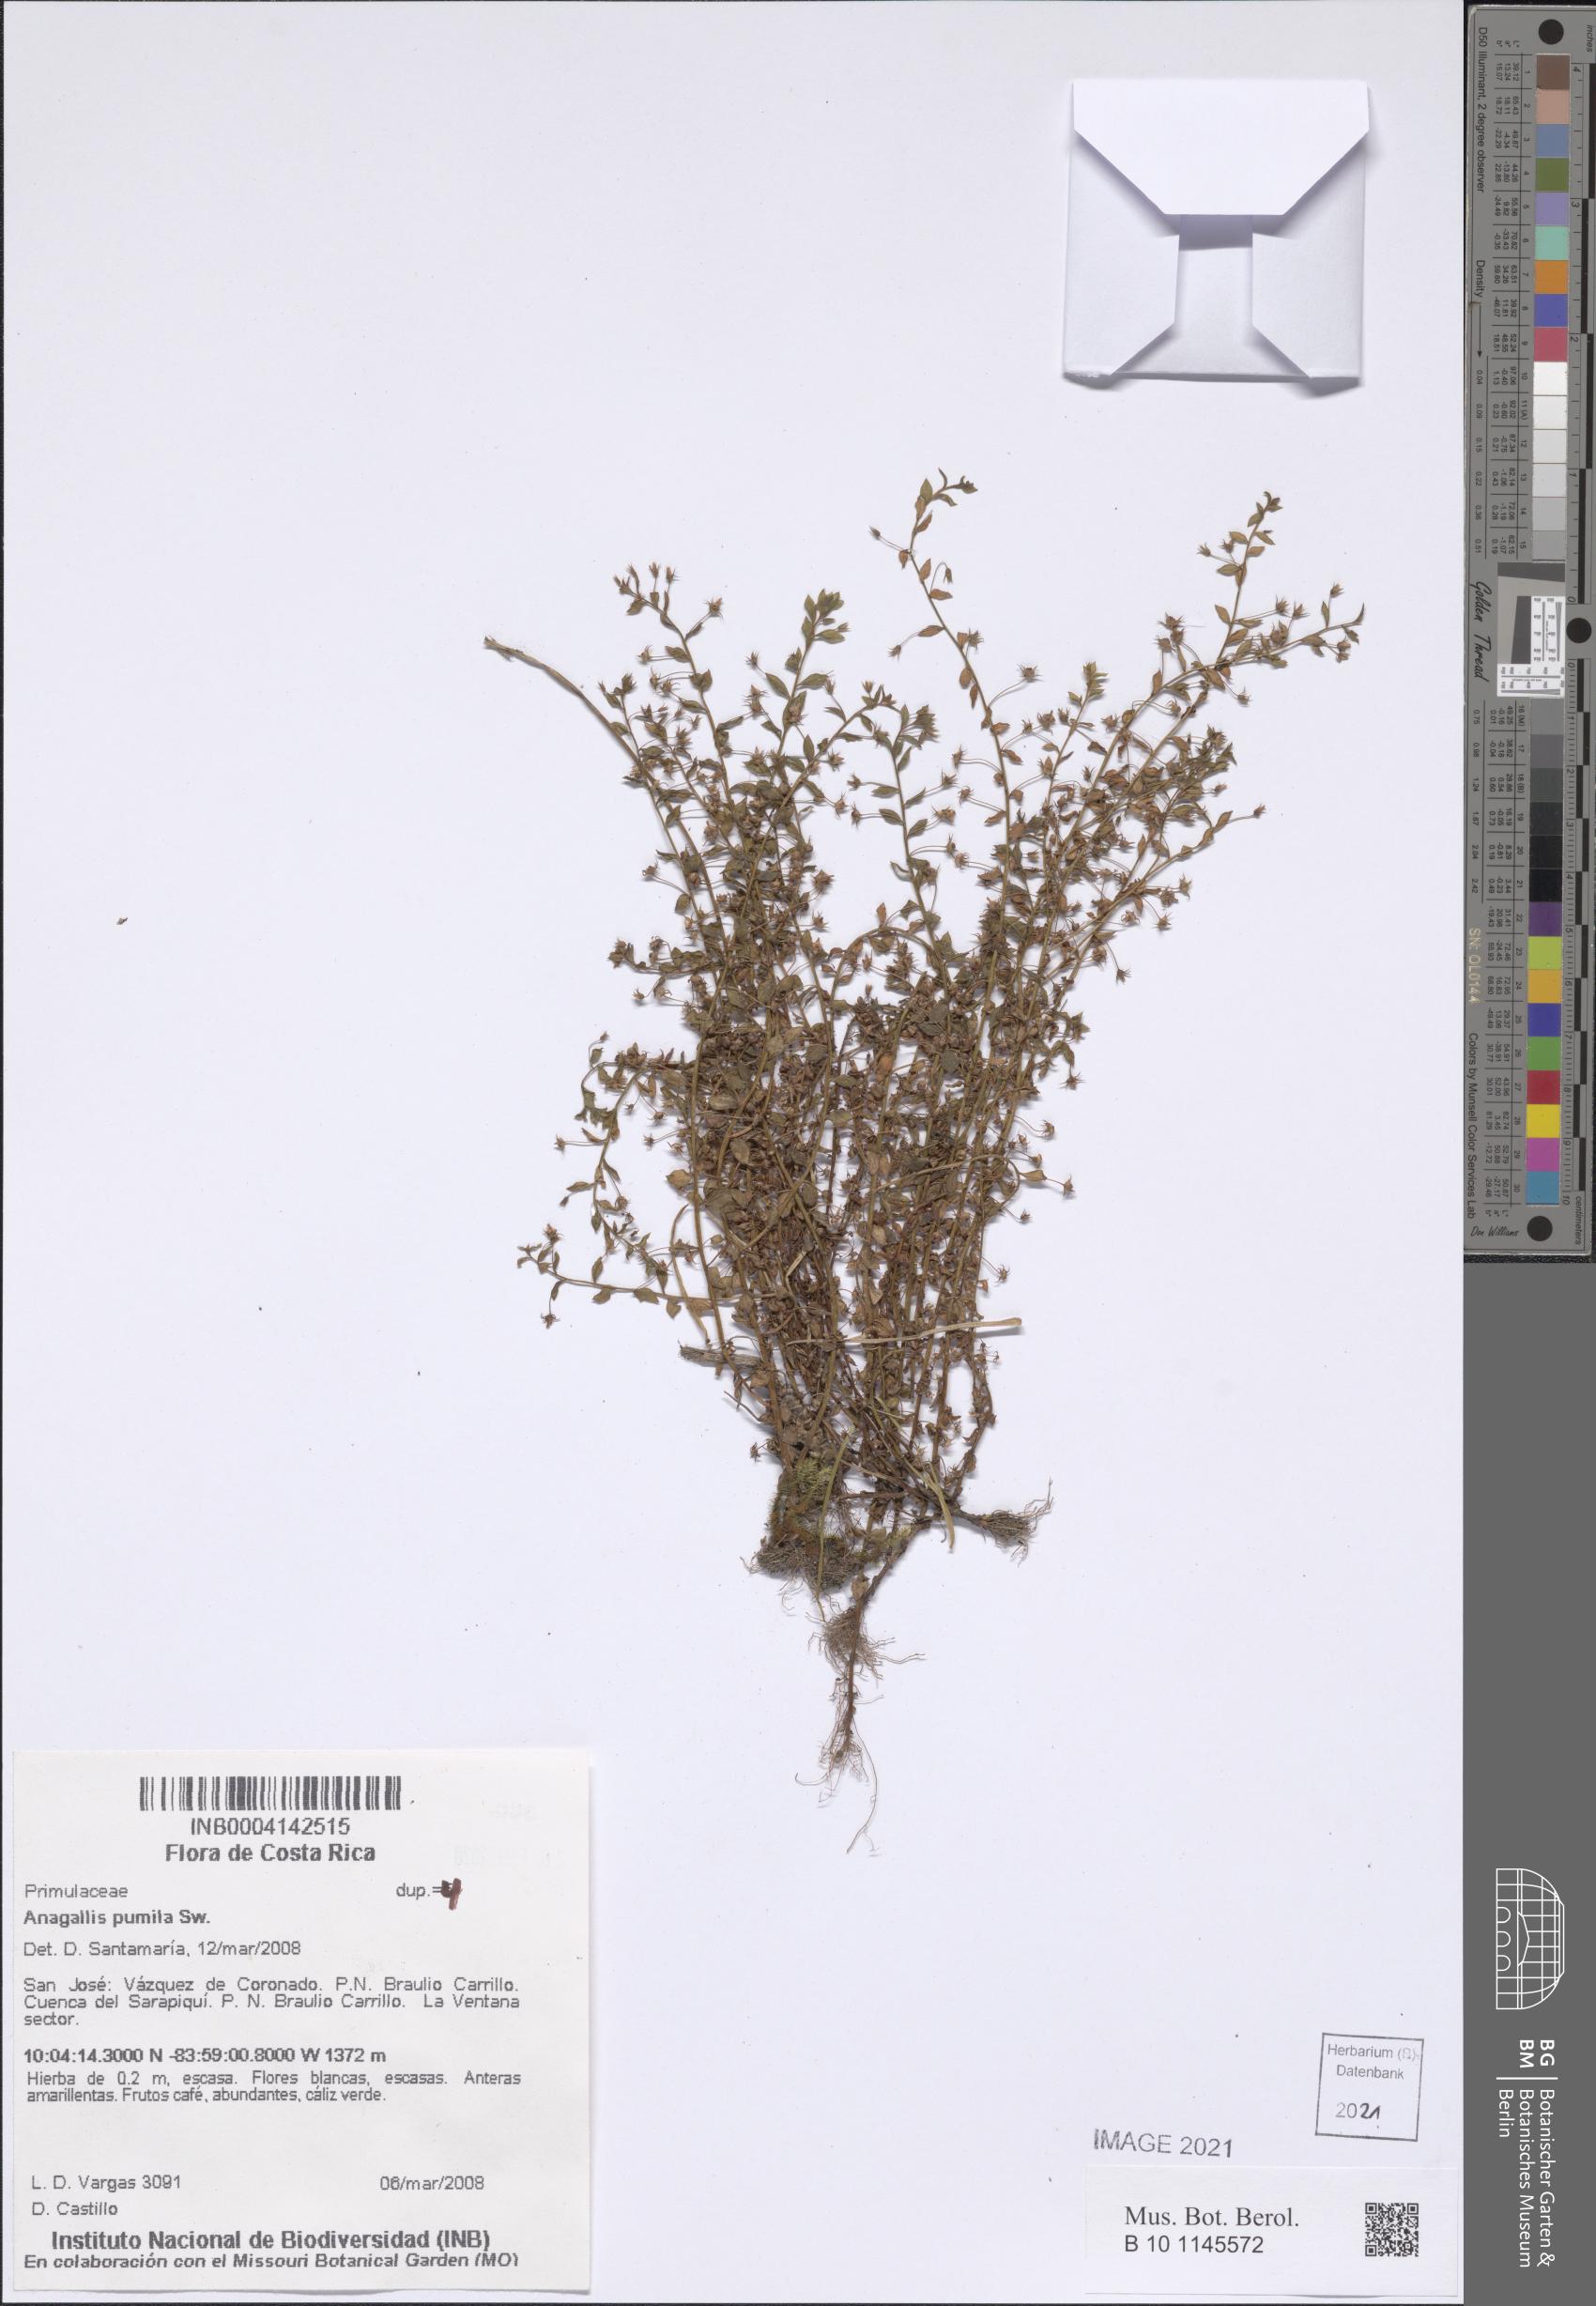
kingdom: Plantae
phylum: Tracheophyta
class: Magnoliopsida
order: Ericales
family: Primulaceae
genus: Lysimachia
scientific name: Lysimachia ovalis
